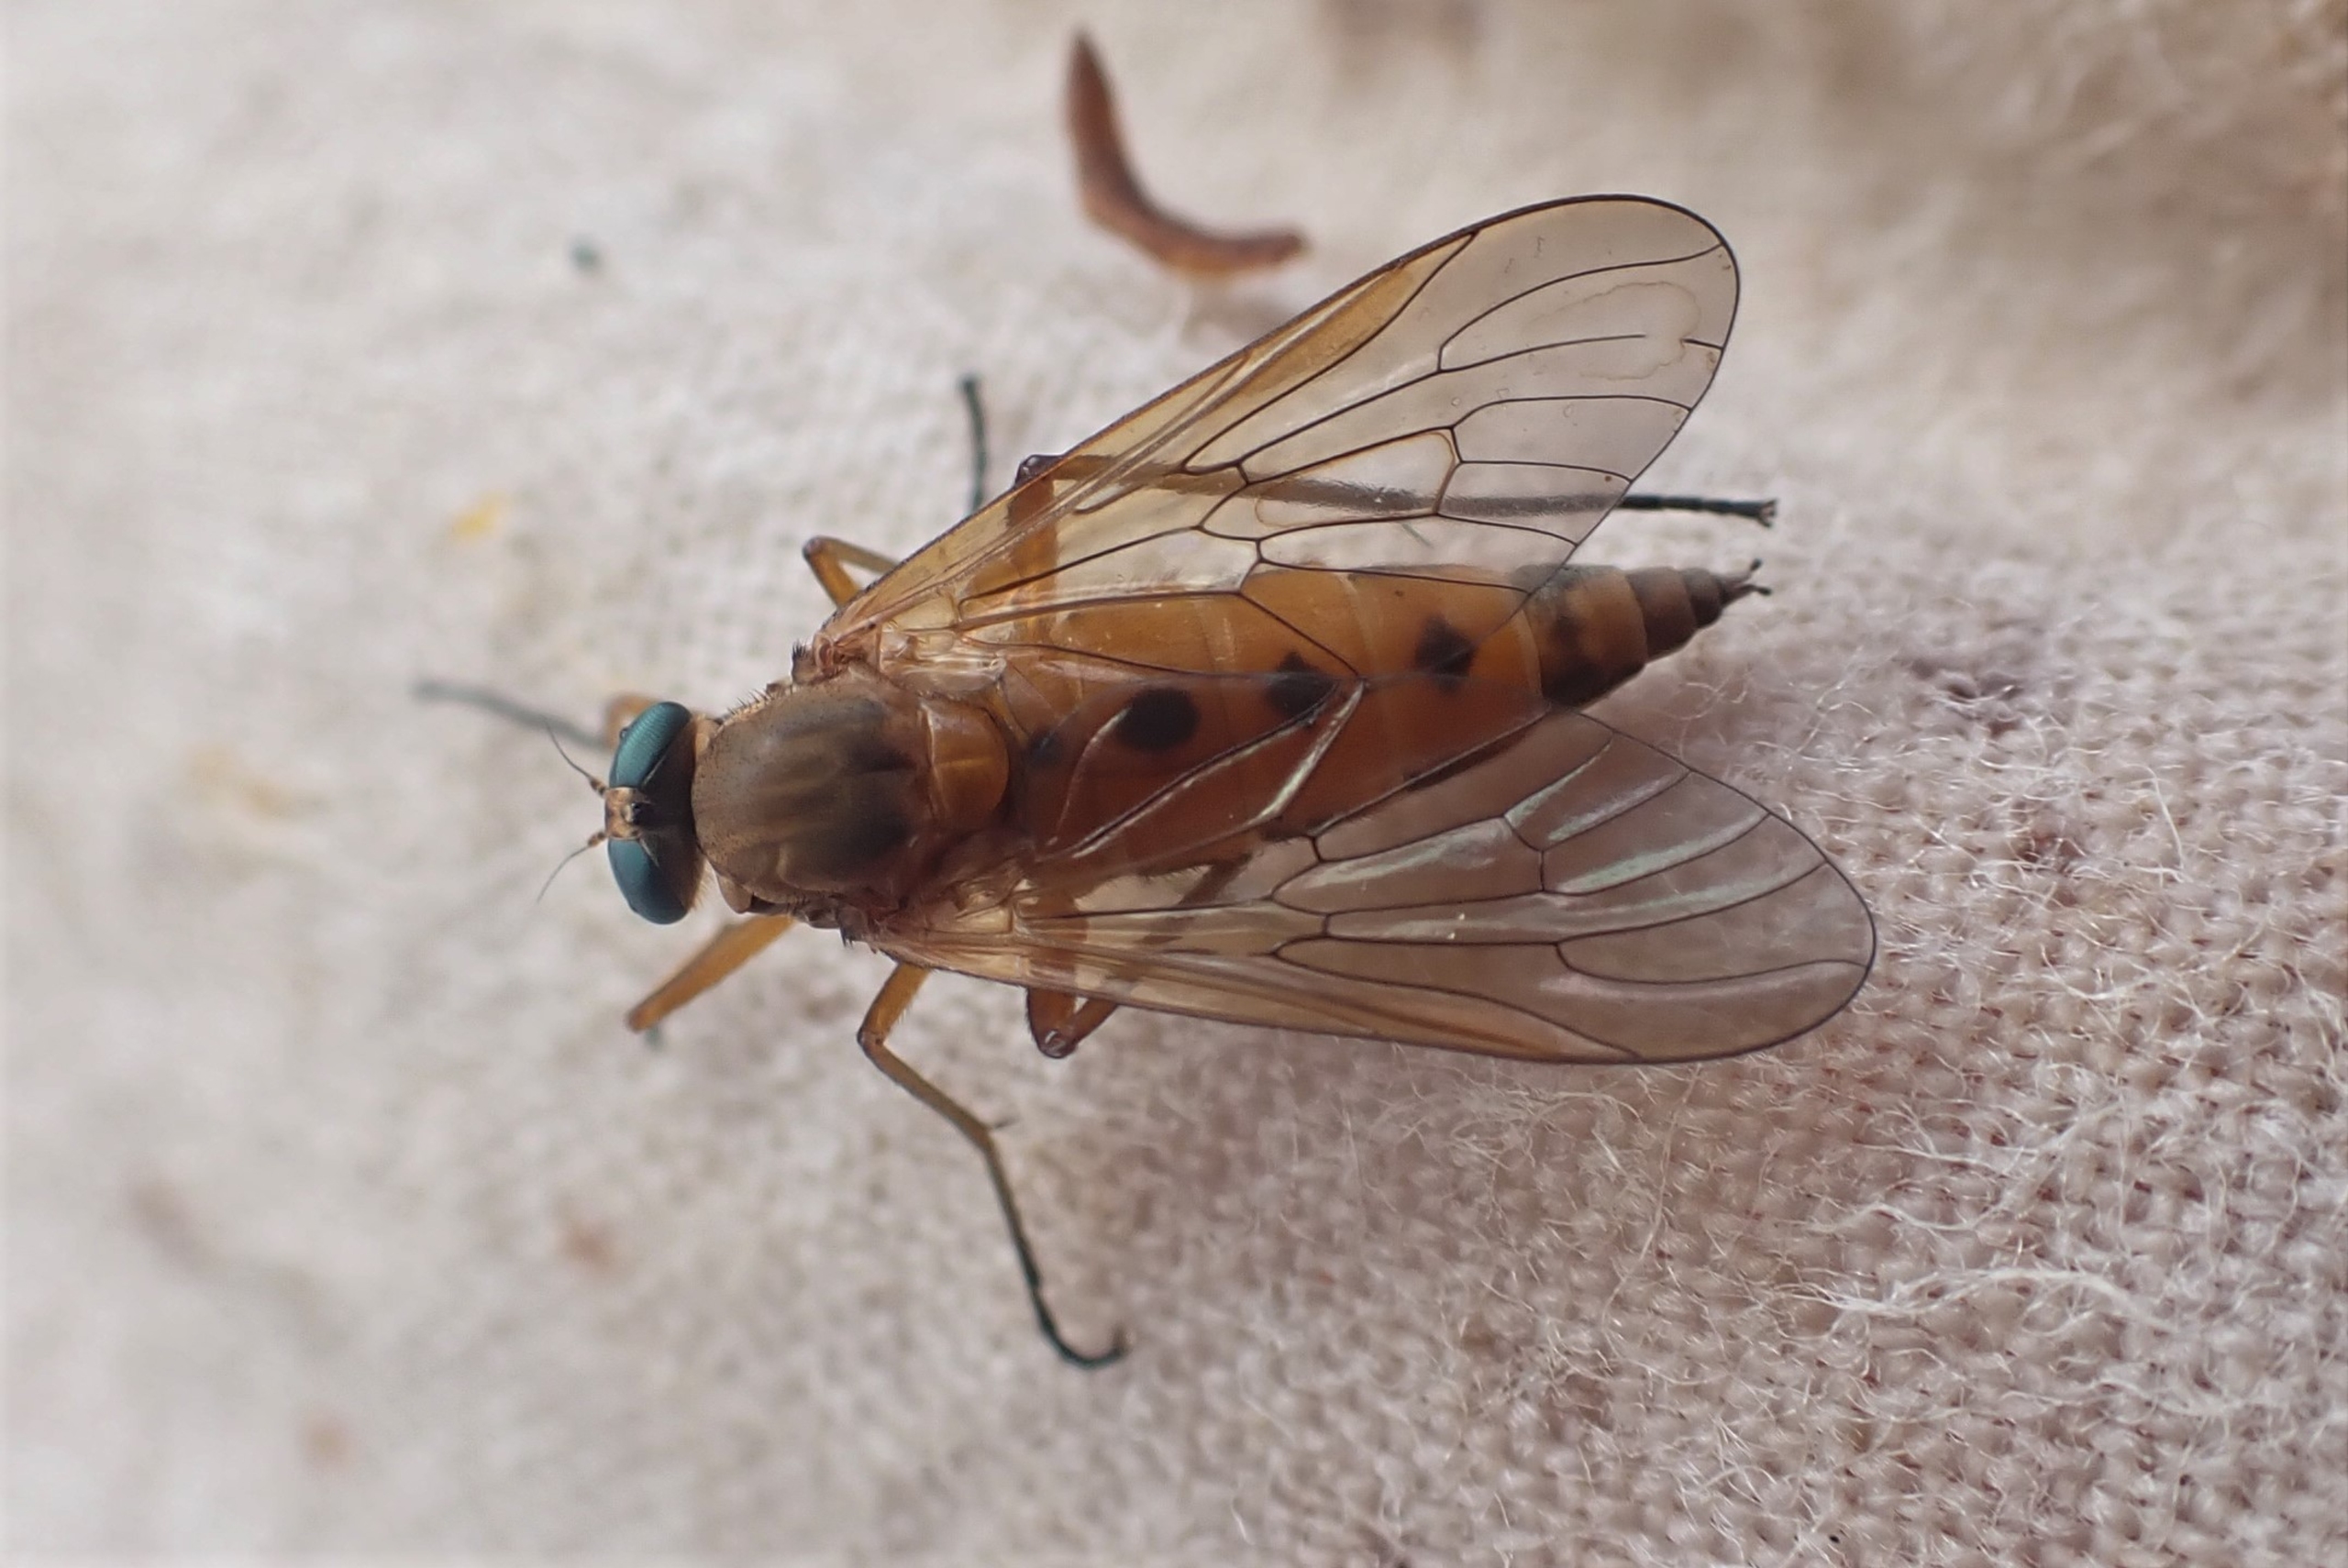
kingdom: Animalia
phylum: Arthropoda
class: Insecta
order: Diptera
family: Rhagionidae
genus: Rhagio
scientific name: Rhagio tringaria
